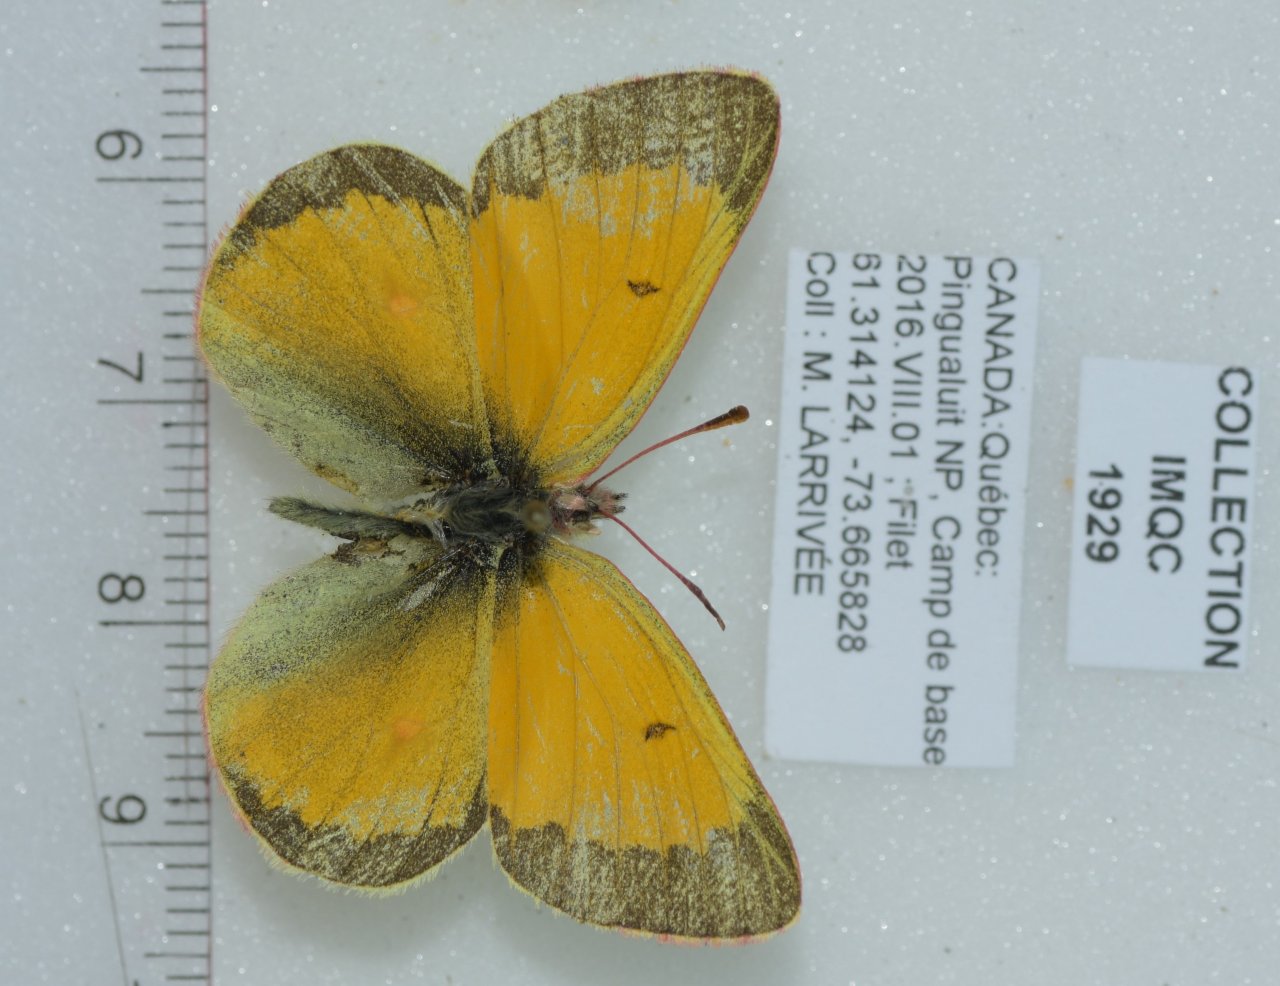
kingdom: Animalia
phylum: Arthropoda
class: Insecta
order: Lepidoptera
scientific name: Lepidoptera
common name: Butterflies
